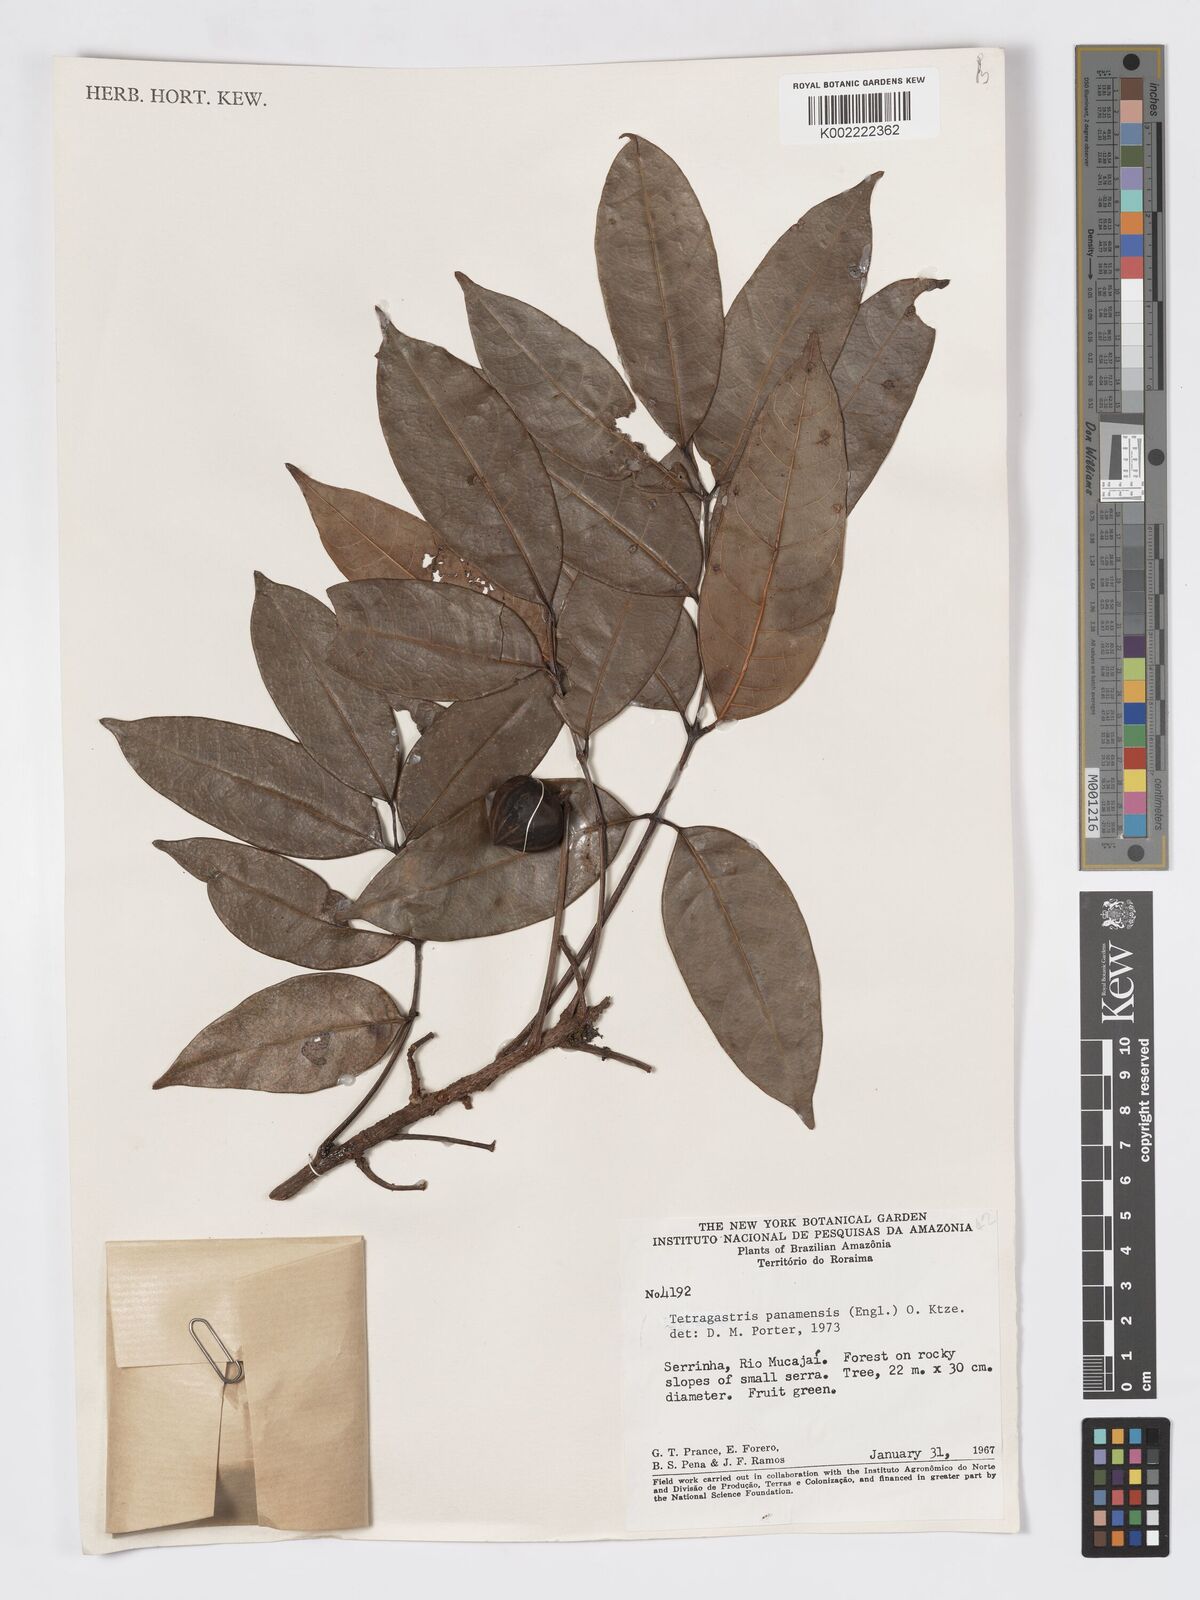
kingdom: Plantae
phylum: Tracheophyta
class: Magnoliopsida
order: Sapindales
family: Burseraceae
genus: Tetragastris
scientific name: Tetragastris panamensis
